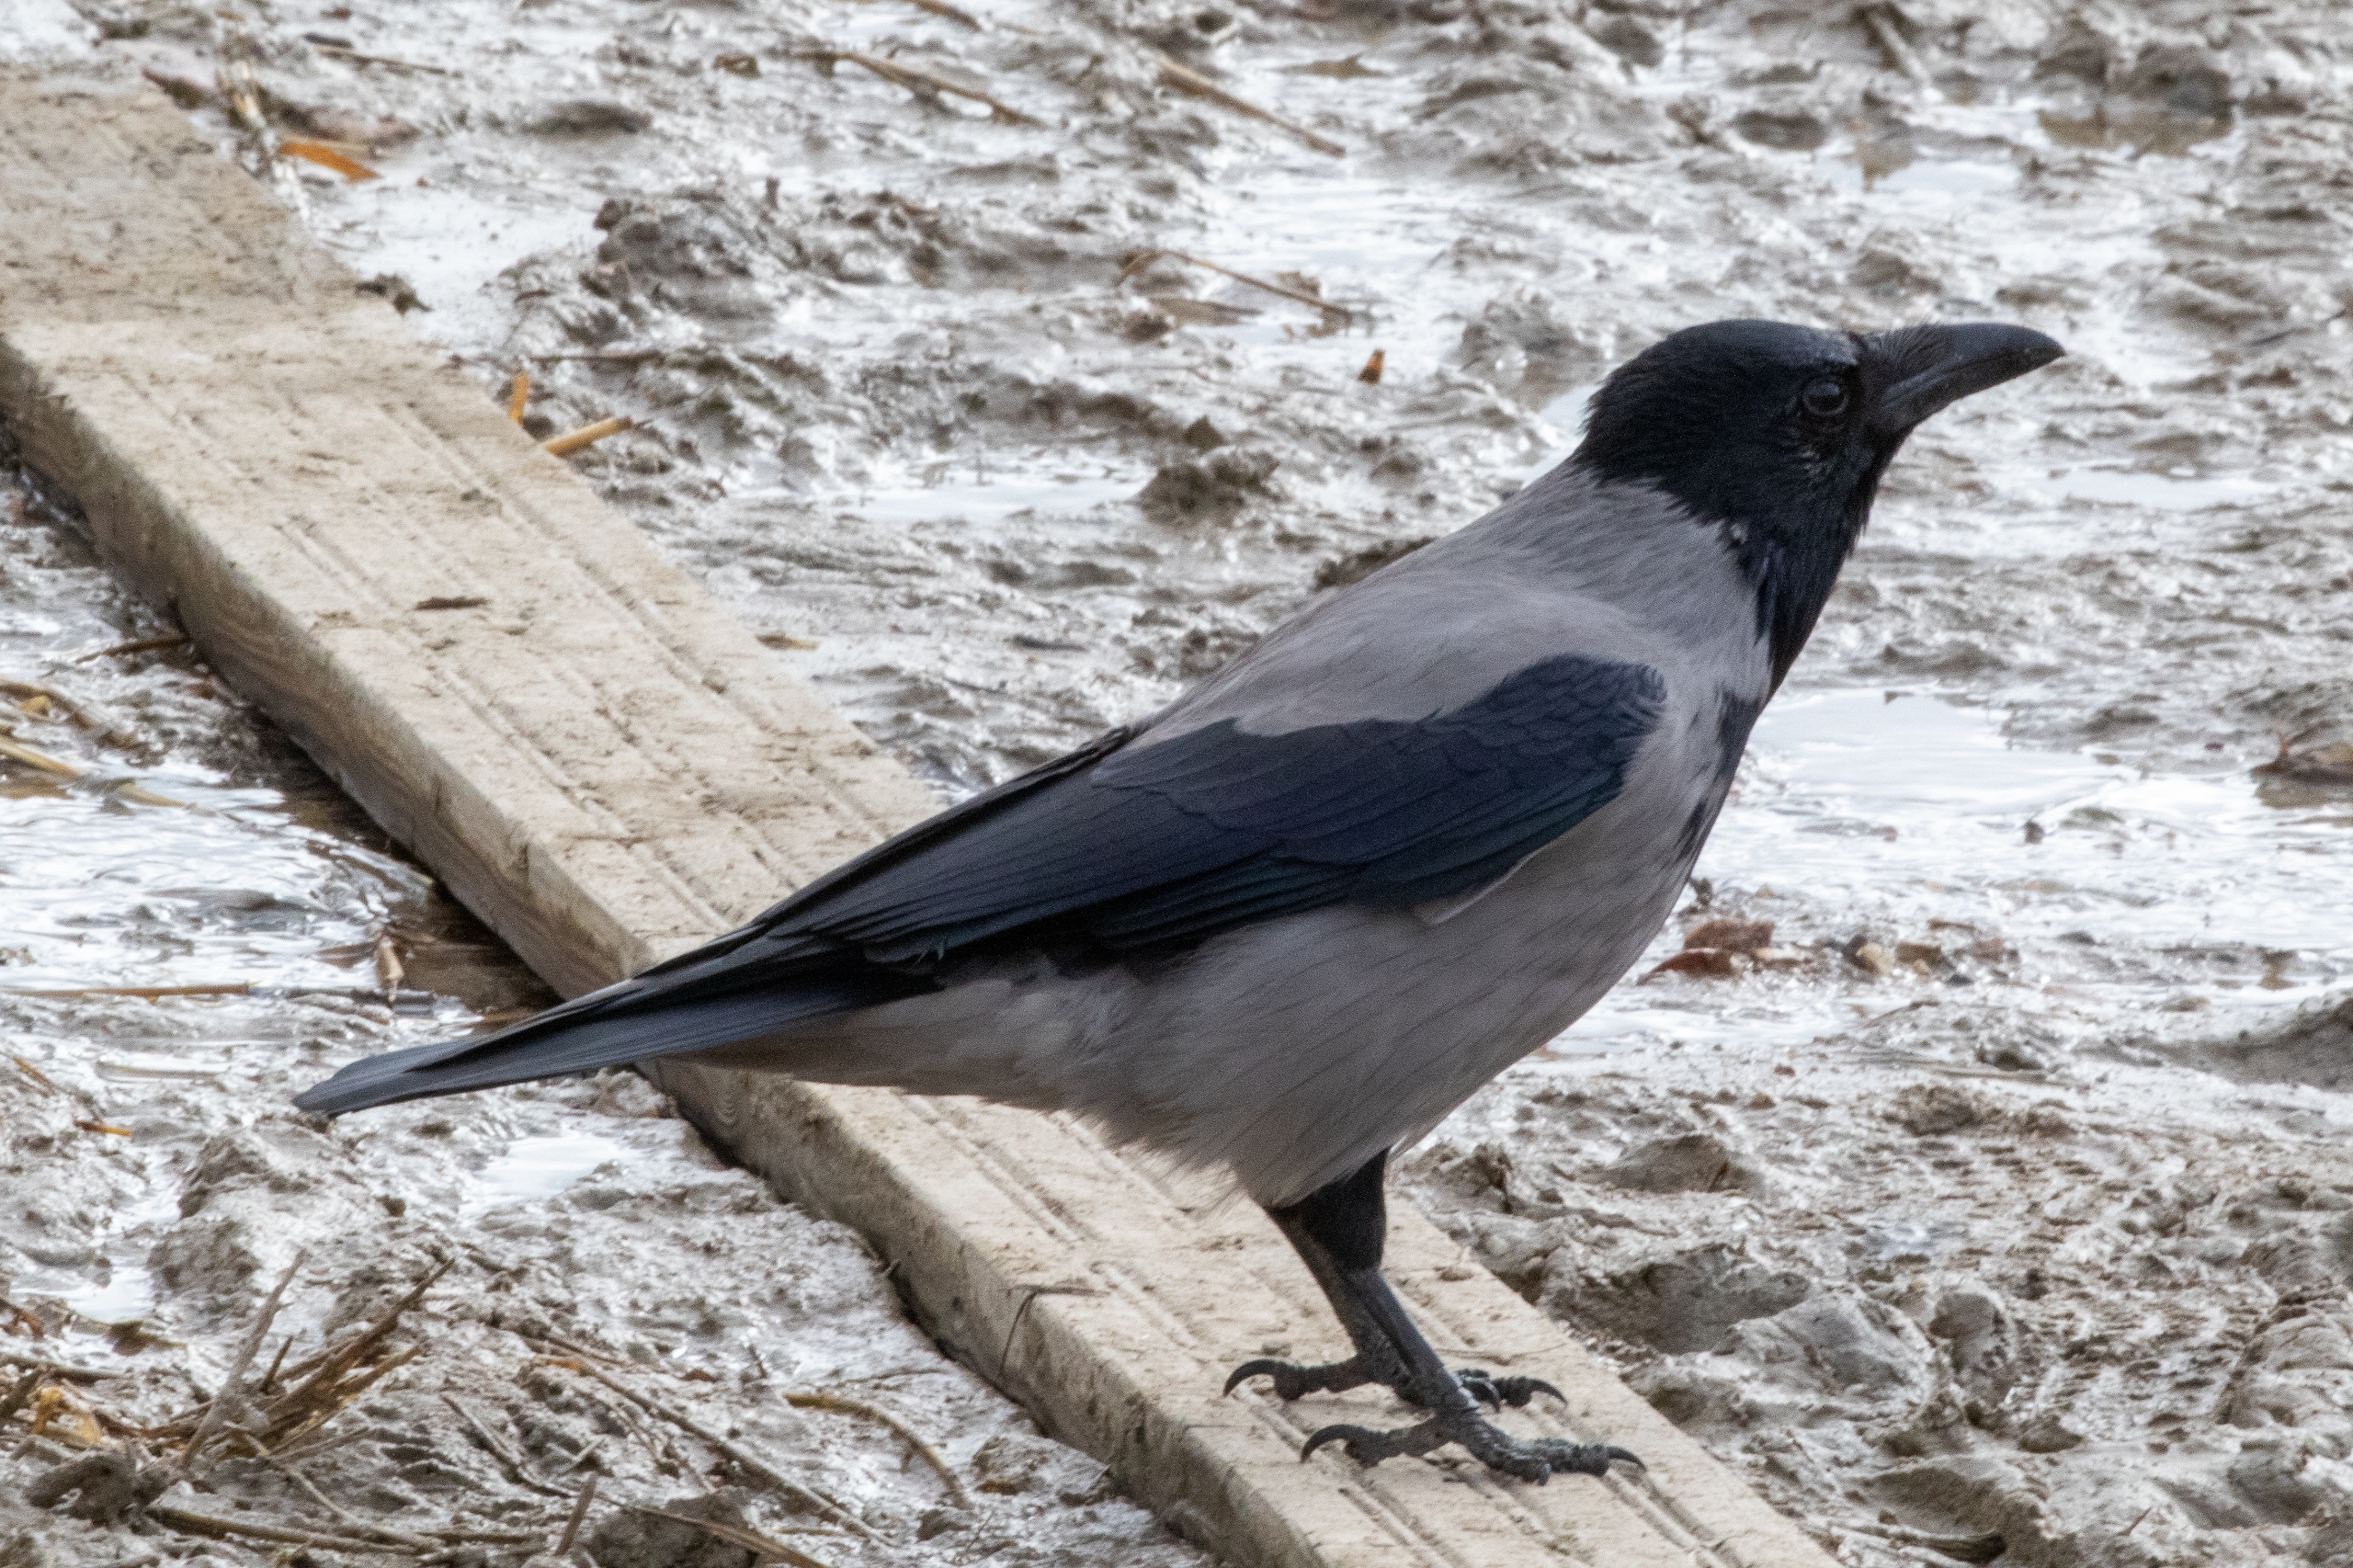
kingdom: Animalia
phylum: Chordata
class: Aves
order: Passeriformes
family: Corvidae
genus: Corvus
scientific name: Corvus cornix
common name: Gråkrage
